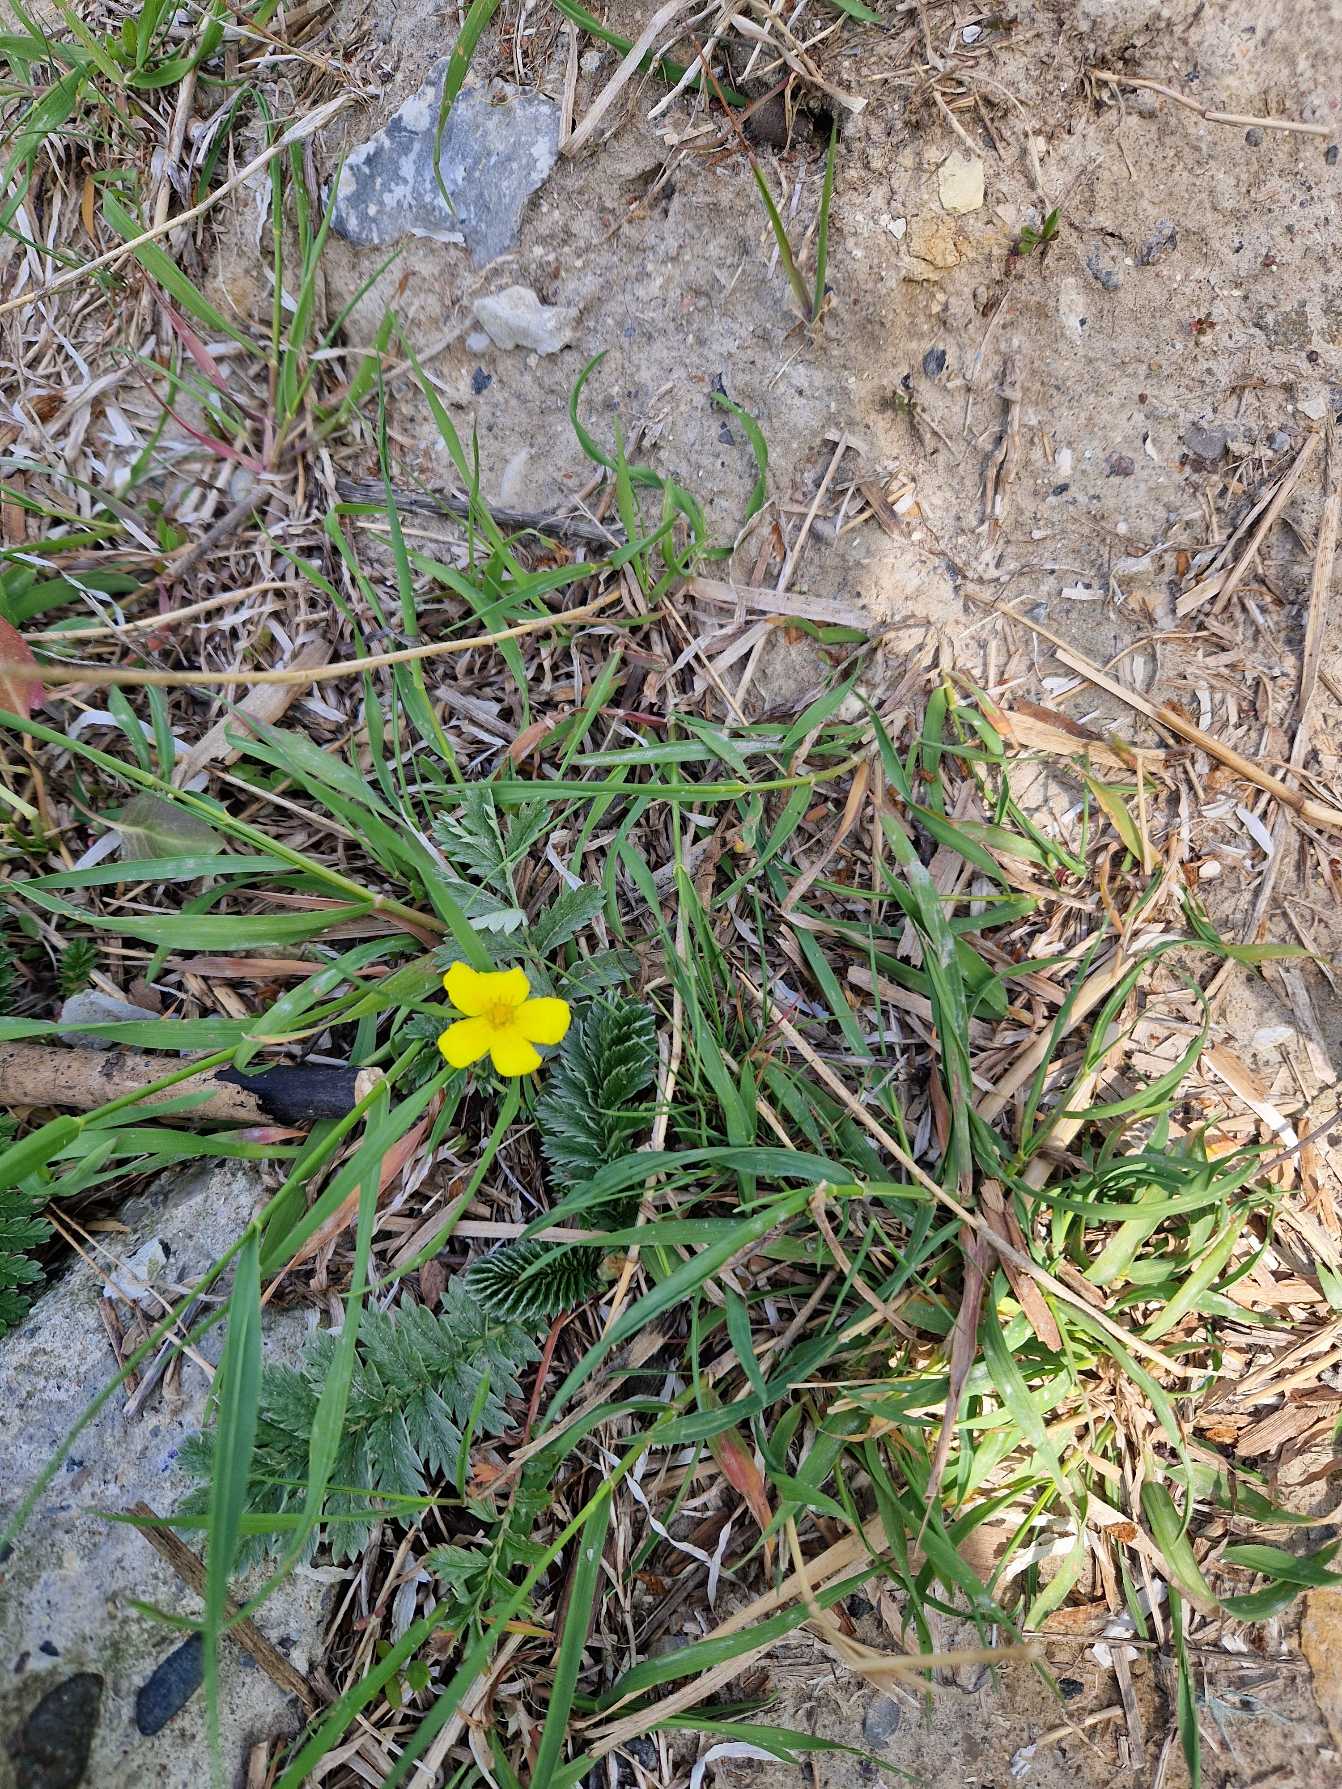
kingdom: Plantae
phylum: Tracheophyta
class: Magnoliopsida
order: Rosales
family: Rosaceae
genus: Argentina
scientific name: Argentina anserina
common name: Gåsepotentil
